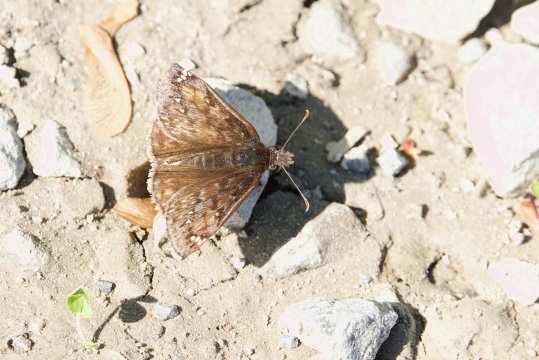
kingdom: Animalia
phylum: Arthropoda
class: Insecta
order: Lepidoptera
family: Hesperiidae
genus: Gesta
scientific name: Gesta
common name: Juvenal's Duskywing
